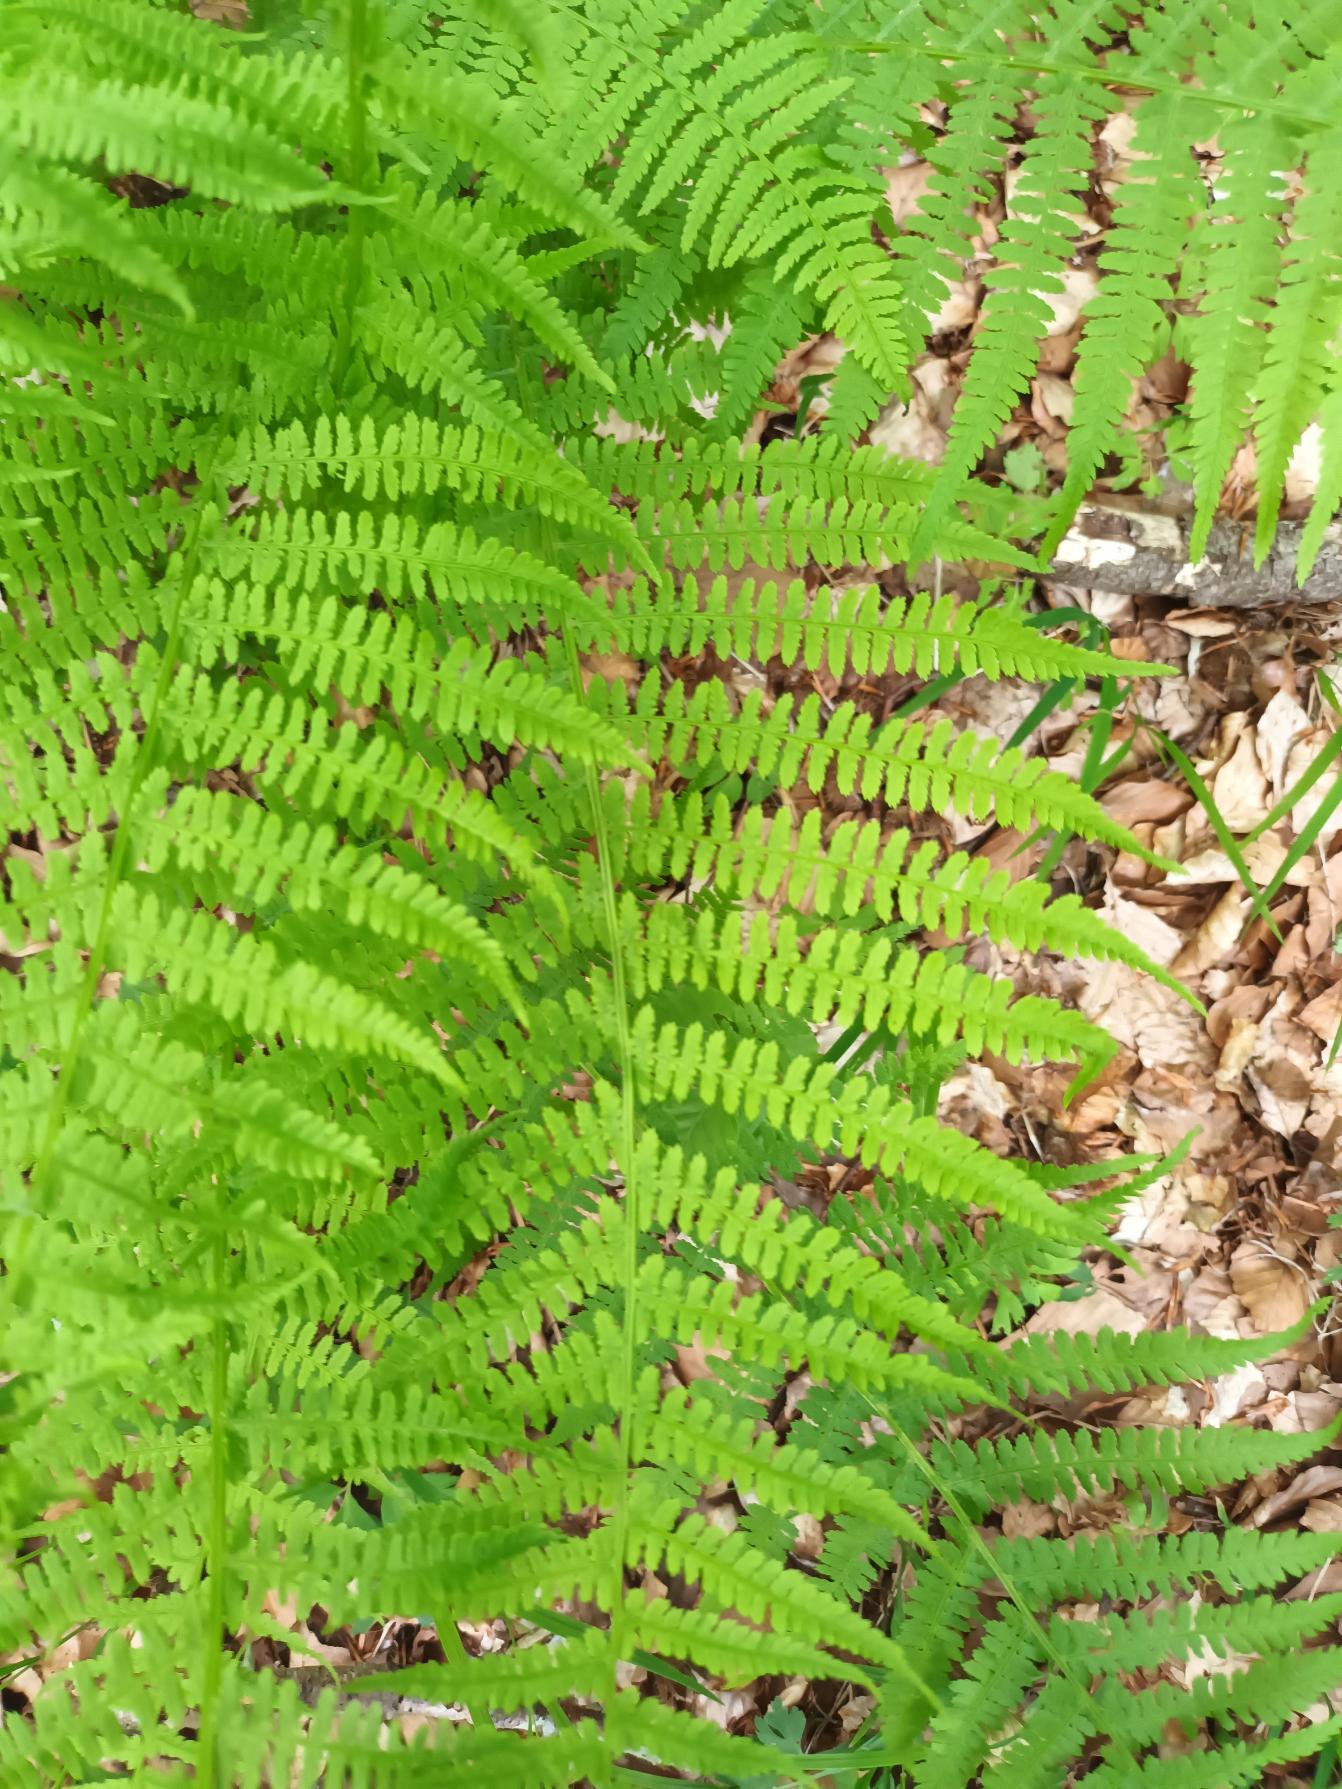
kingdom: Plantae
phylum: Tracheophyta
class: Polypodiopsida
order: Polypodiales
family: Athyriaceae
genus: Athyrium
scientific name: Athyrium filix-femina
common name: Fjerbregne
